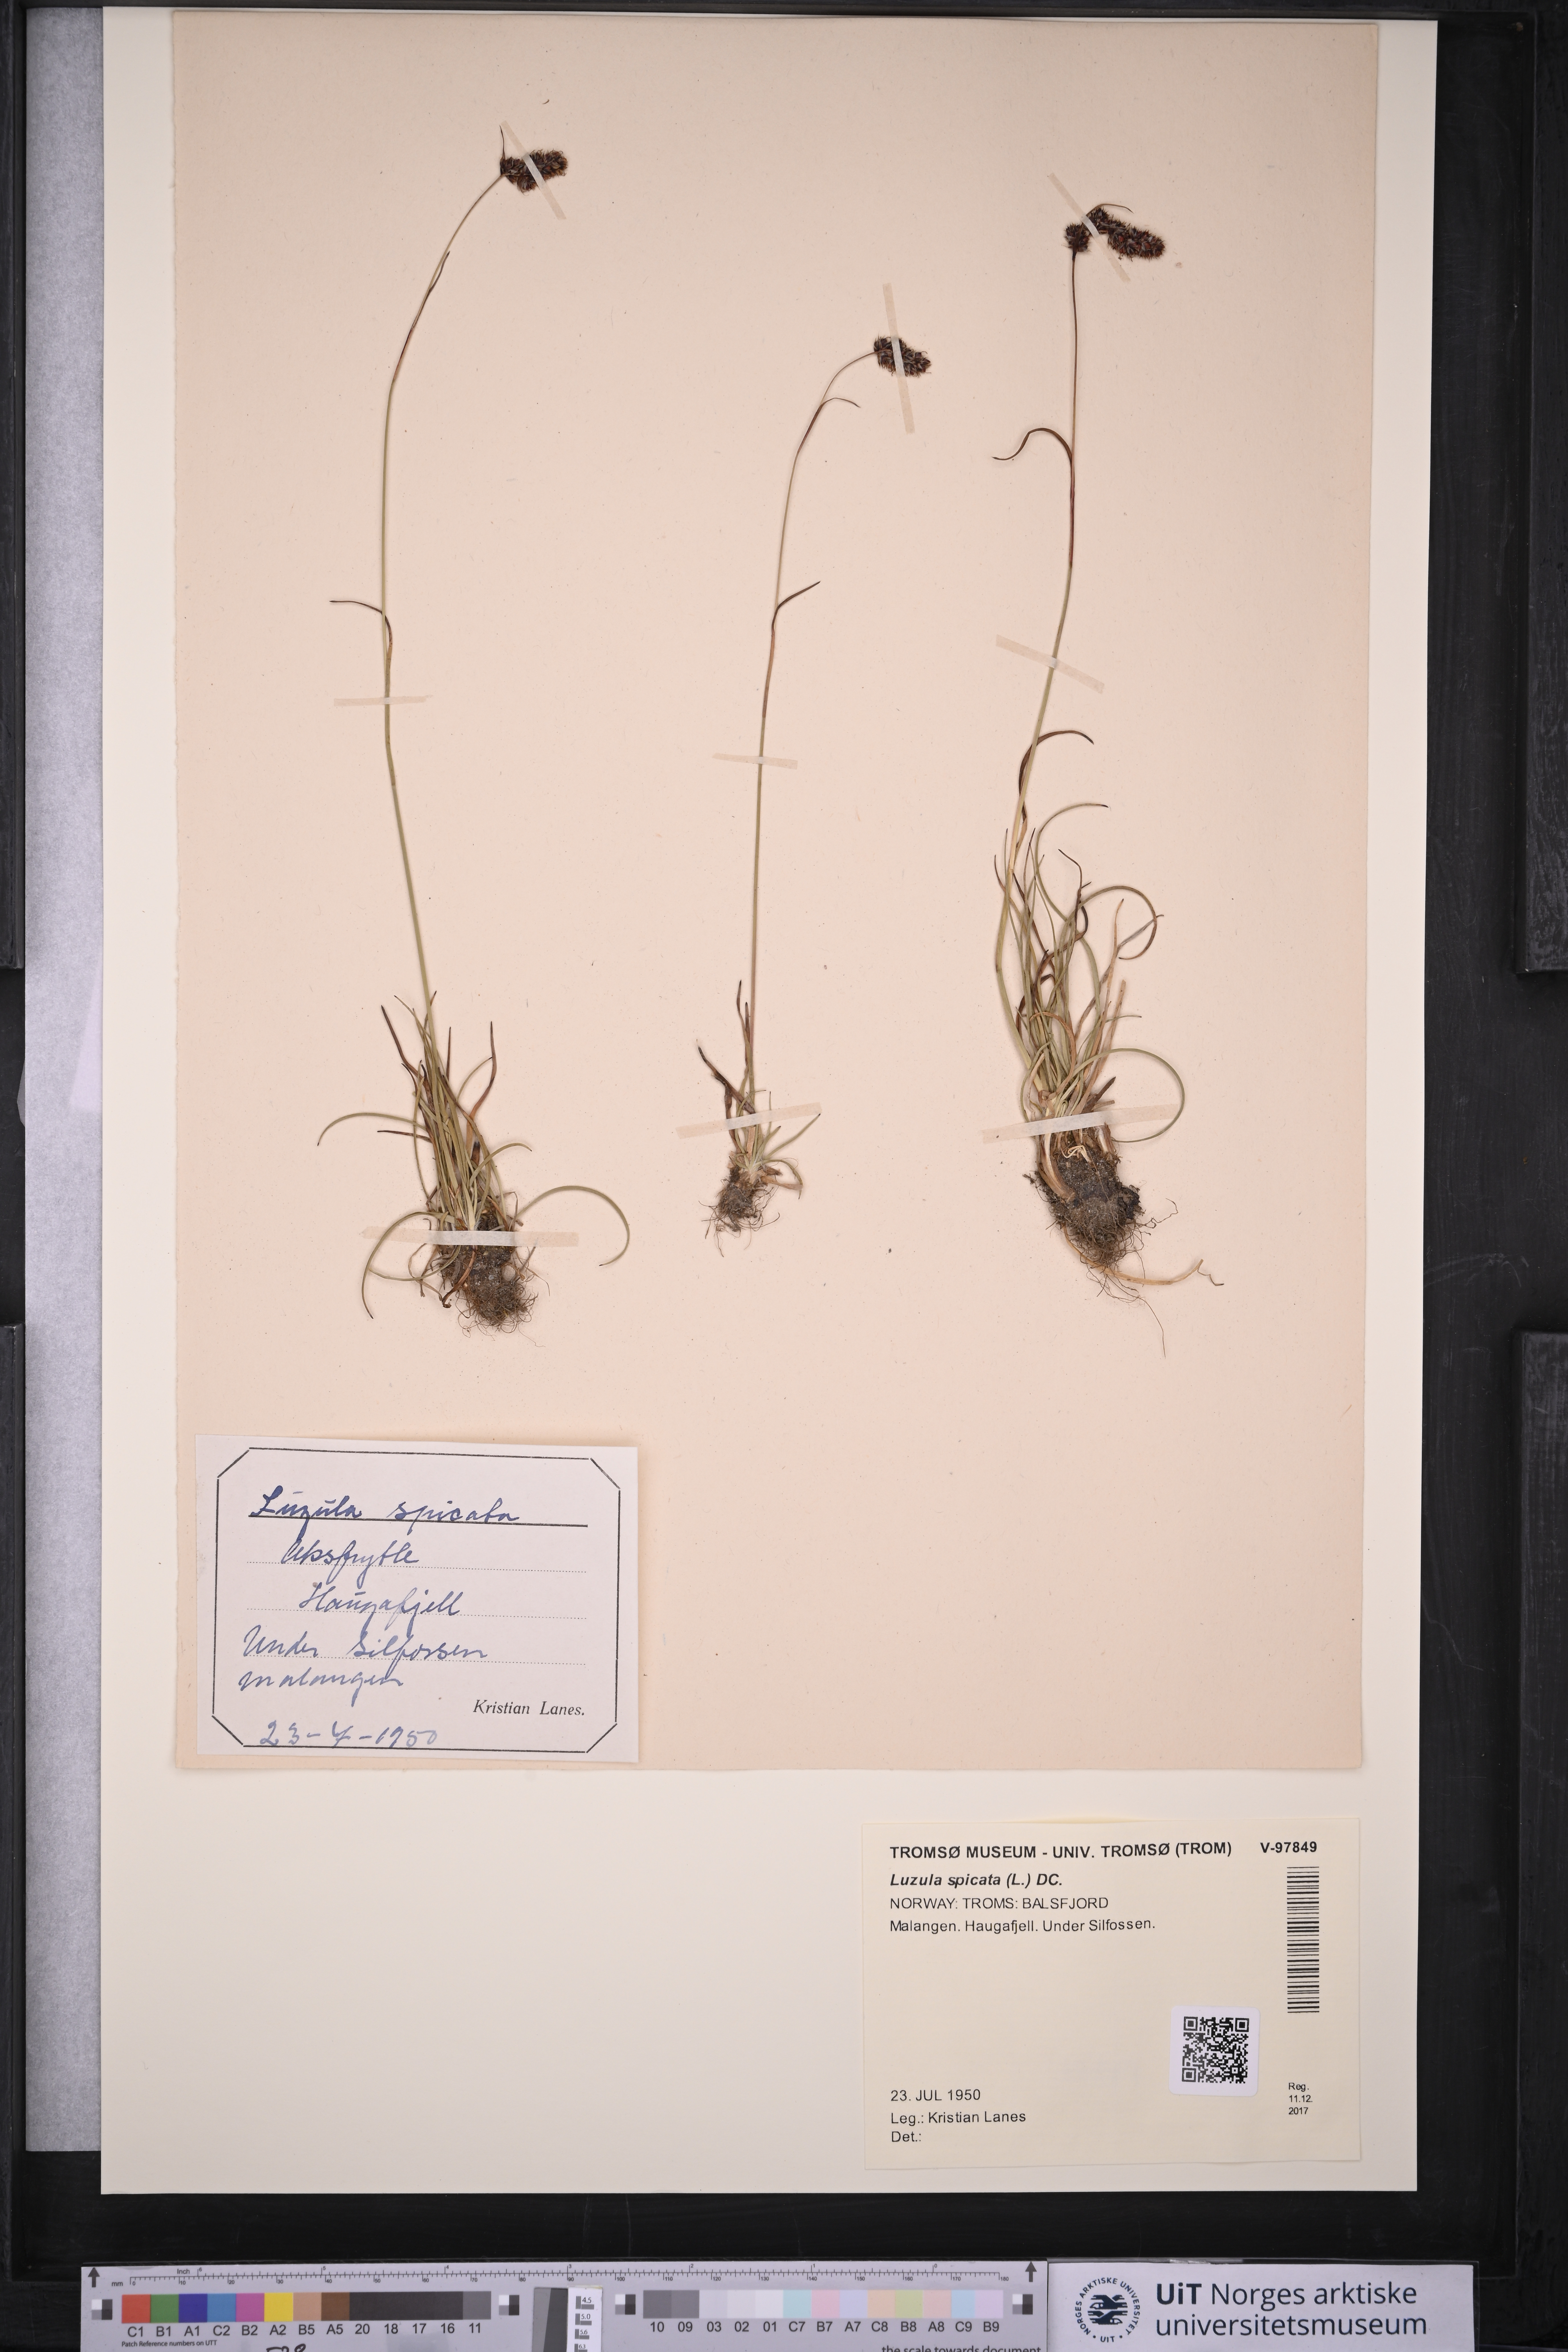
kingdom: Plantae
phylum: Tracheophyta
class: Liliopsida
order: Poales
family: Juncaceae
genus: Luzula
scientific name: Luzula spicata
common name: Spiked wood-rush
